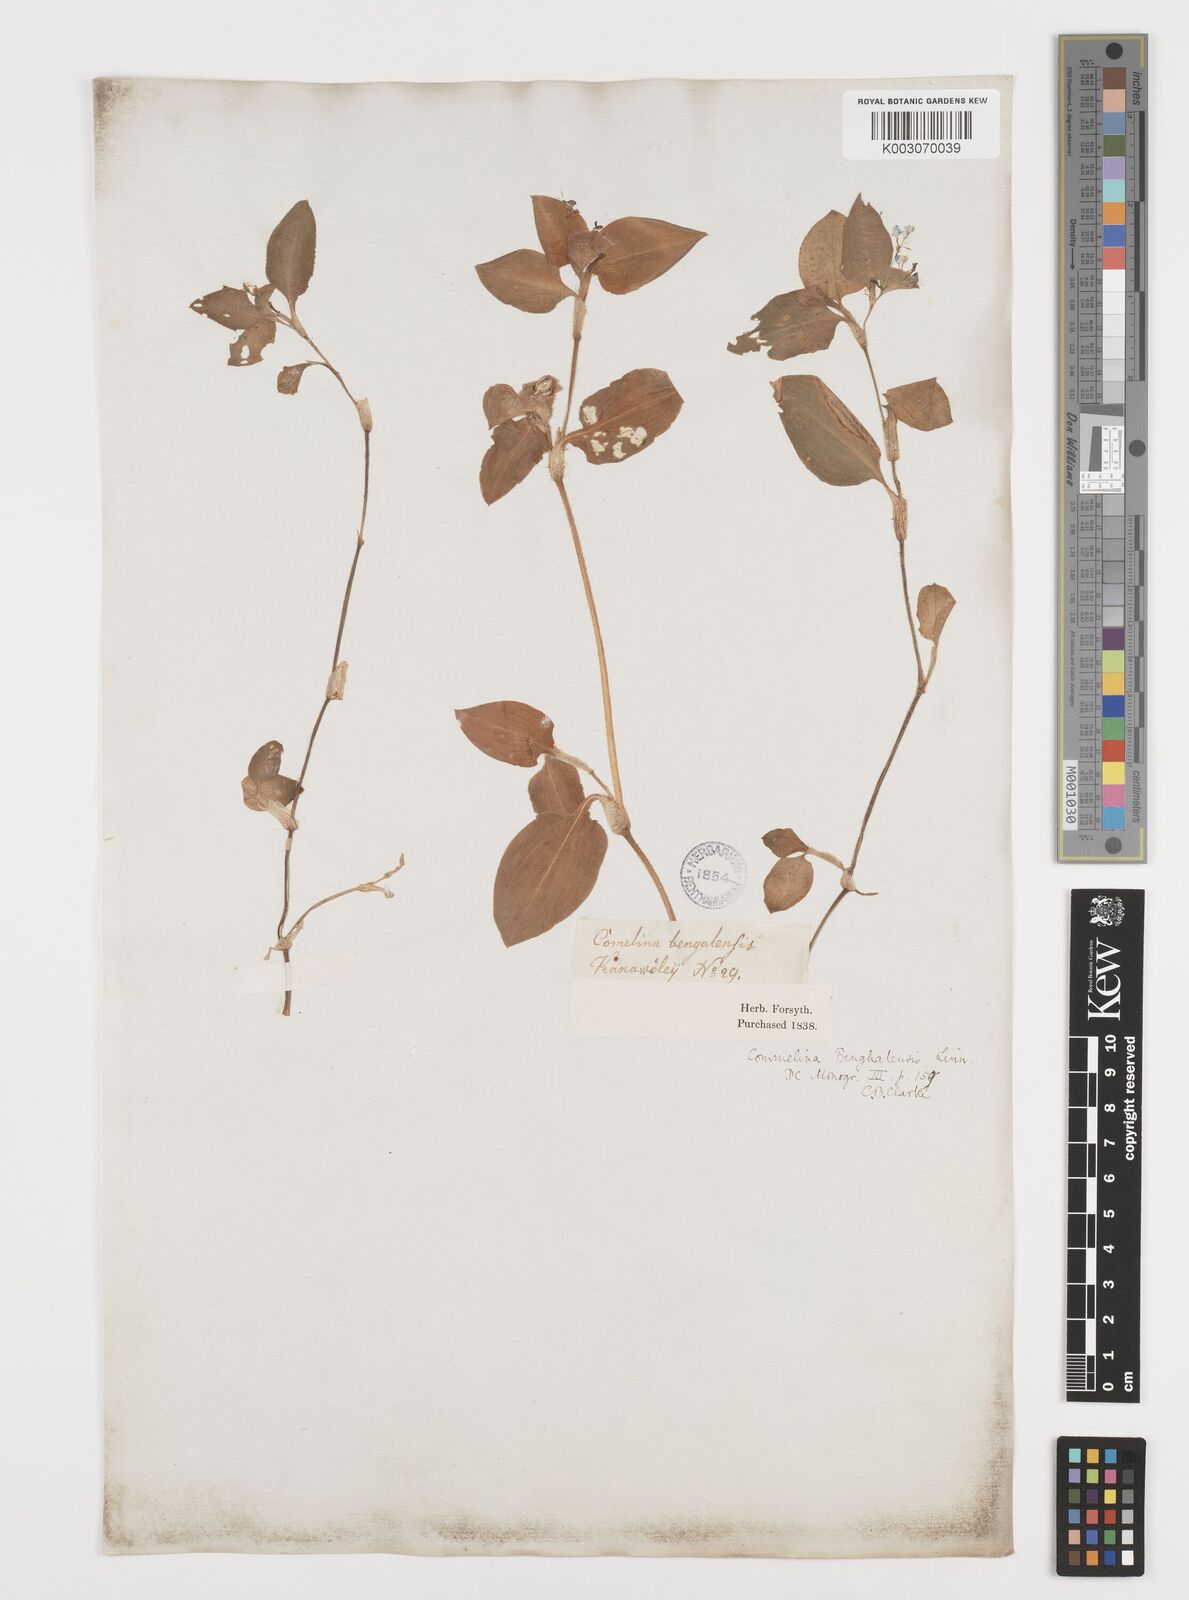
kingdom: Plantae
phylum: Tracheophyta
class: Liliopsida
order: Commelinales
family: Commelinaceae
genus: Commelina
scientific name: Commelina benghalensis
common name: Jio
